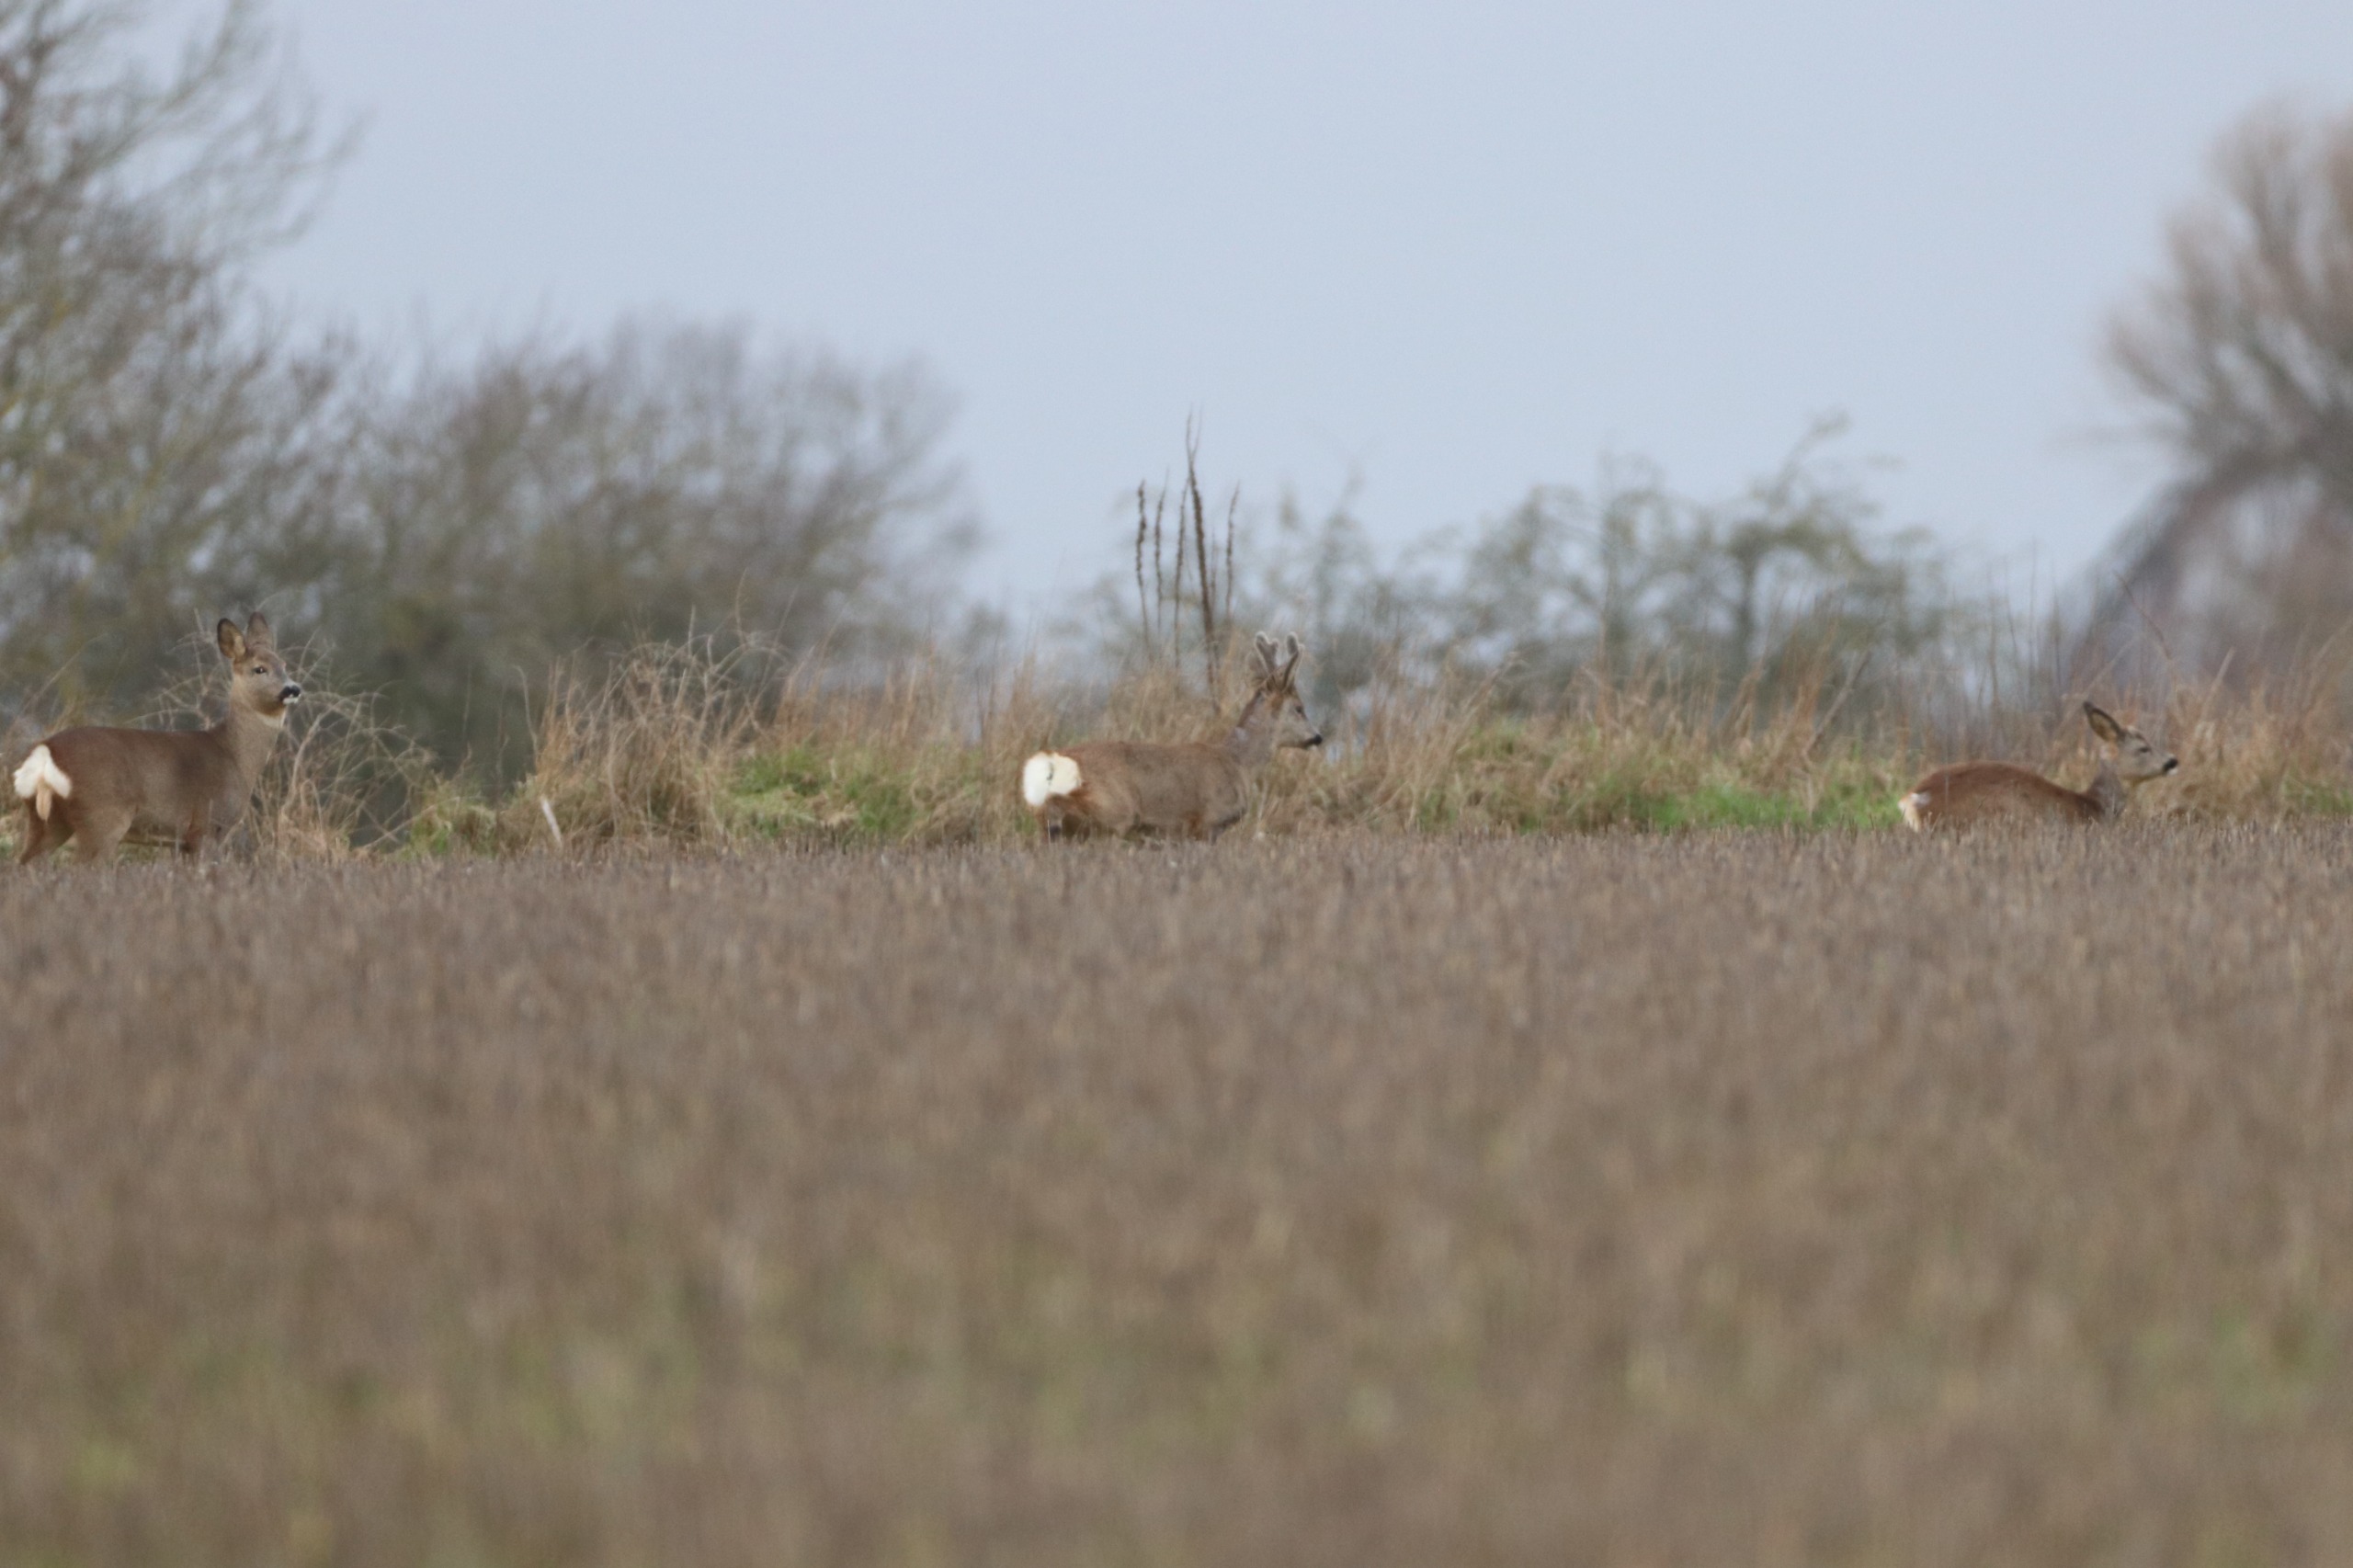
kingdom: Animalia
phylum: Chordata
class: Mammalia
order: Artiodactyla
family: Cervidae
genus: Capreolus
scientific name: Capreolus capreolus
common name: Rådyr
